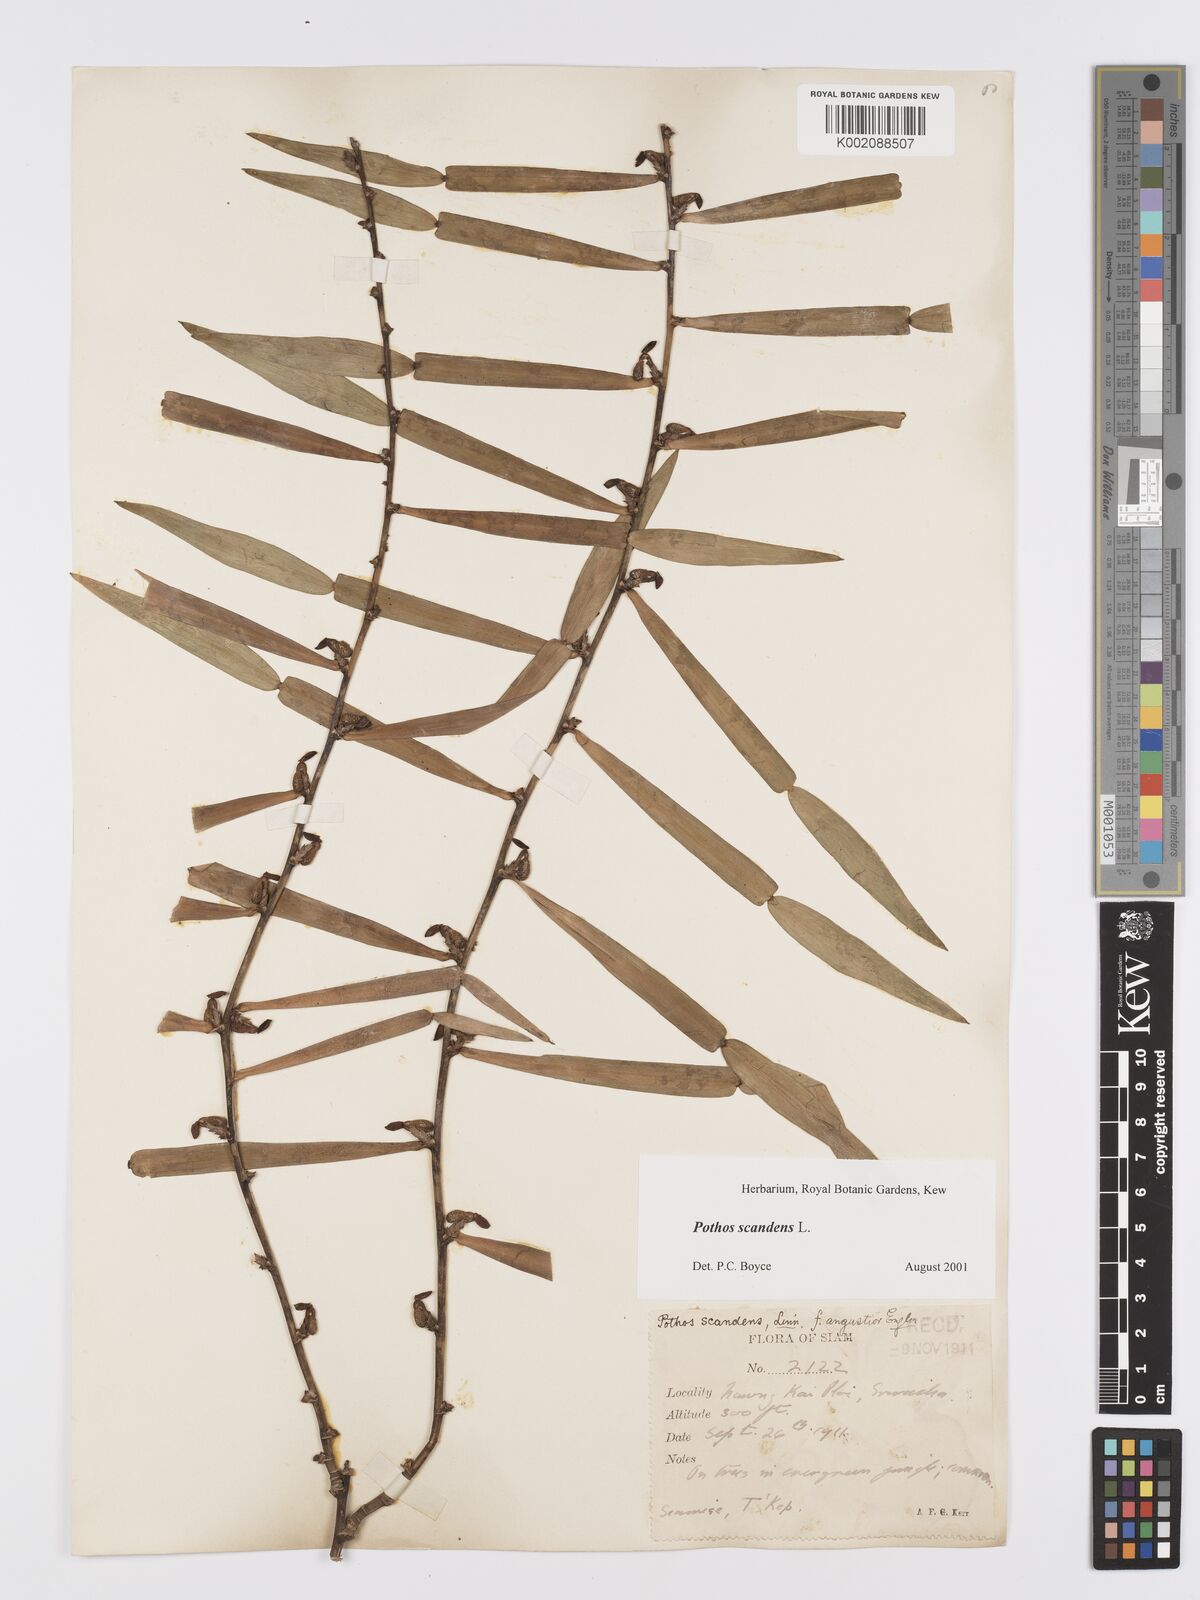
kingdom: Plantae
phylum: Tracheophyta
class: Liliopsida
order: Alismatales
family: Araceae
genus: Pothos
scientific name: Pothos scandens
